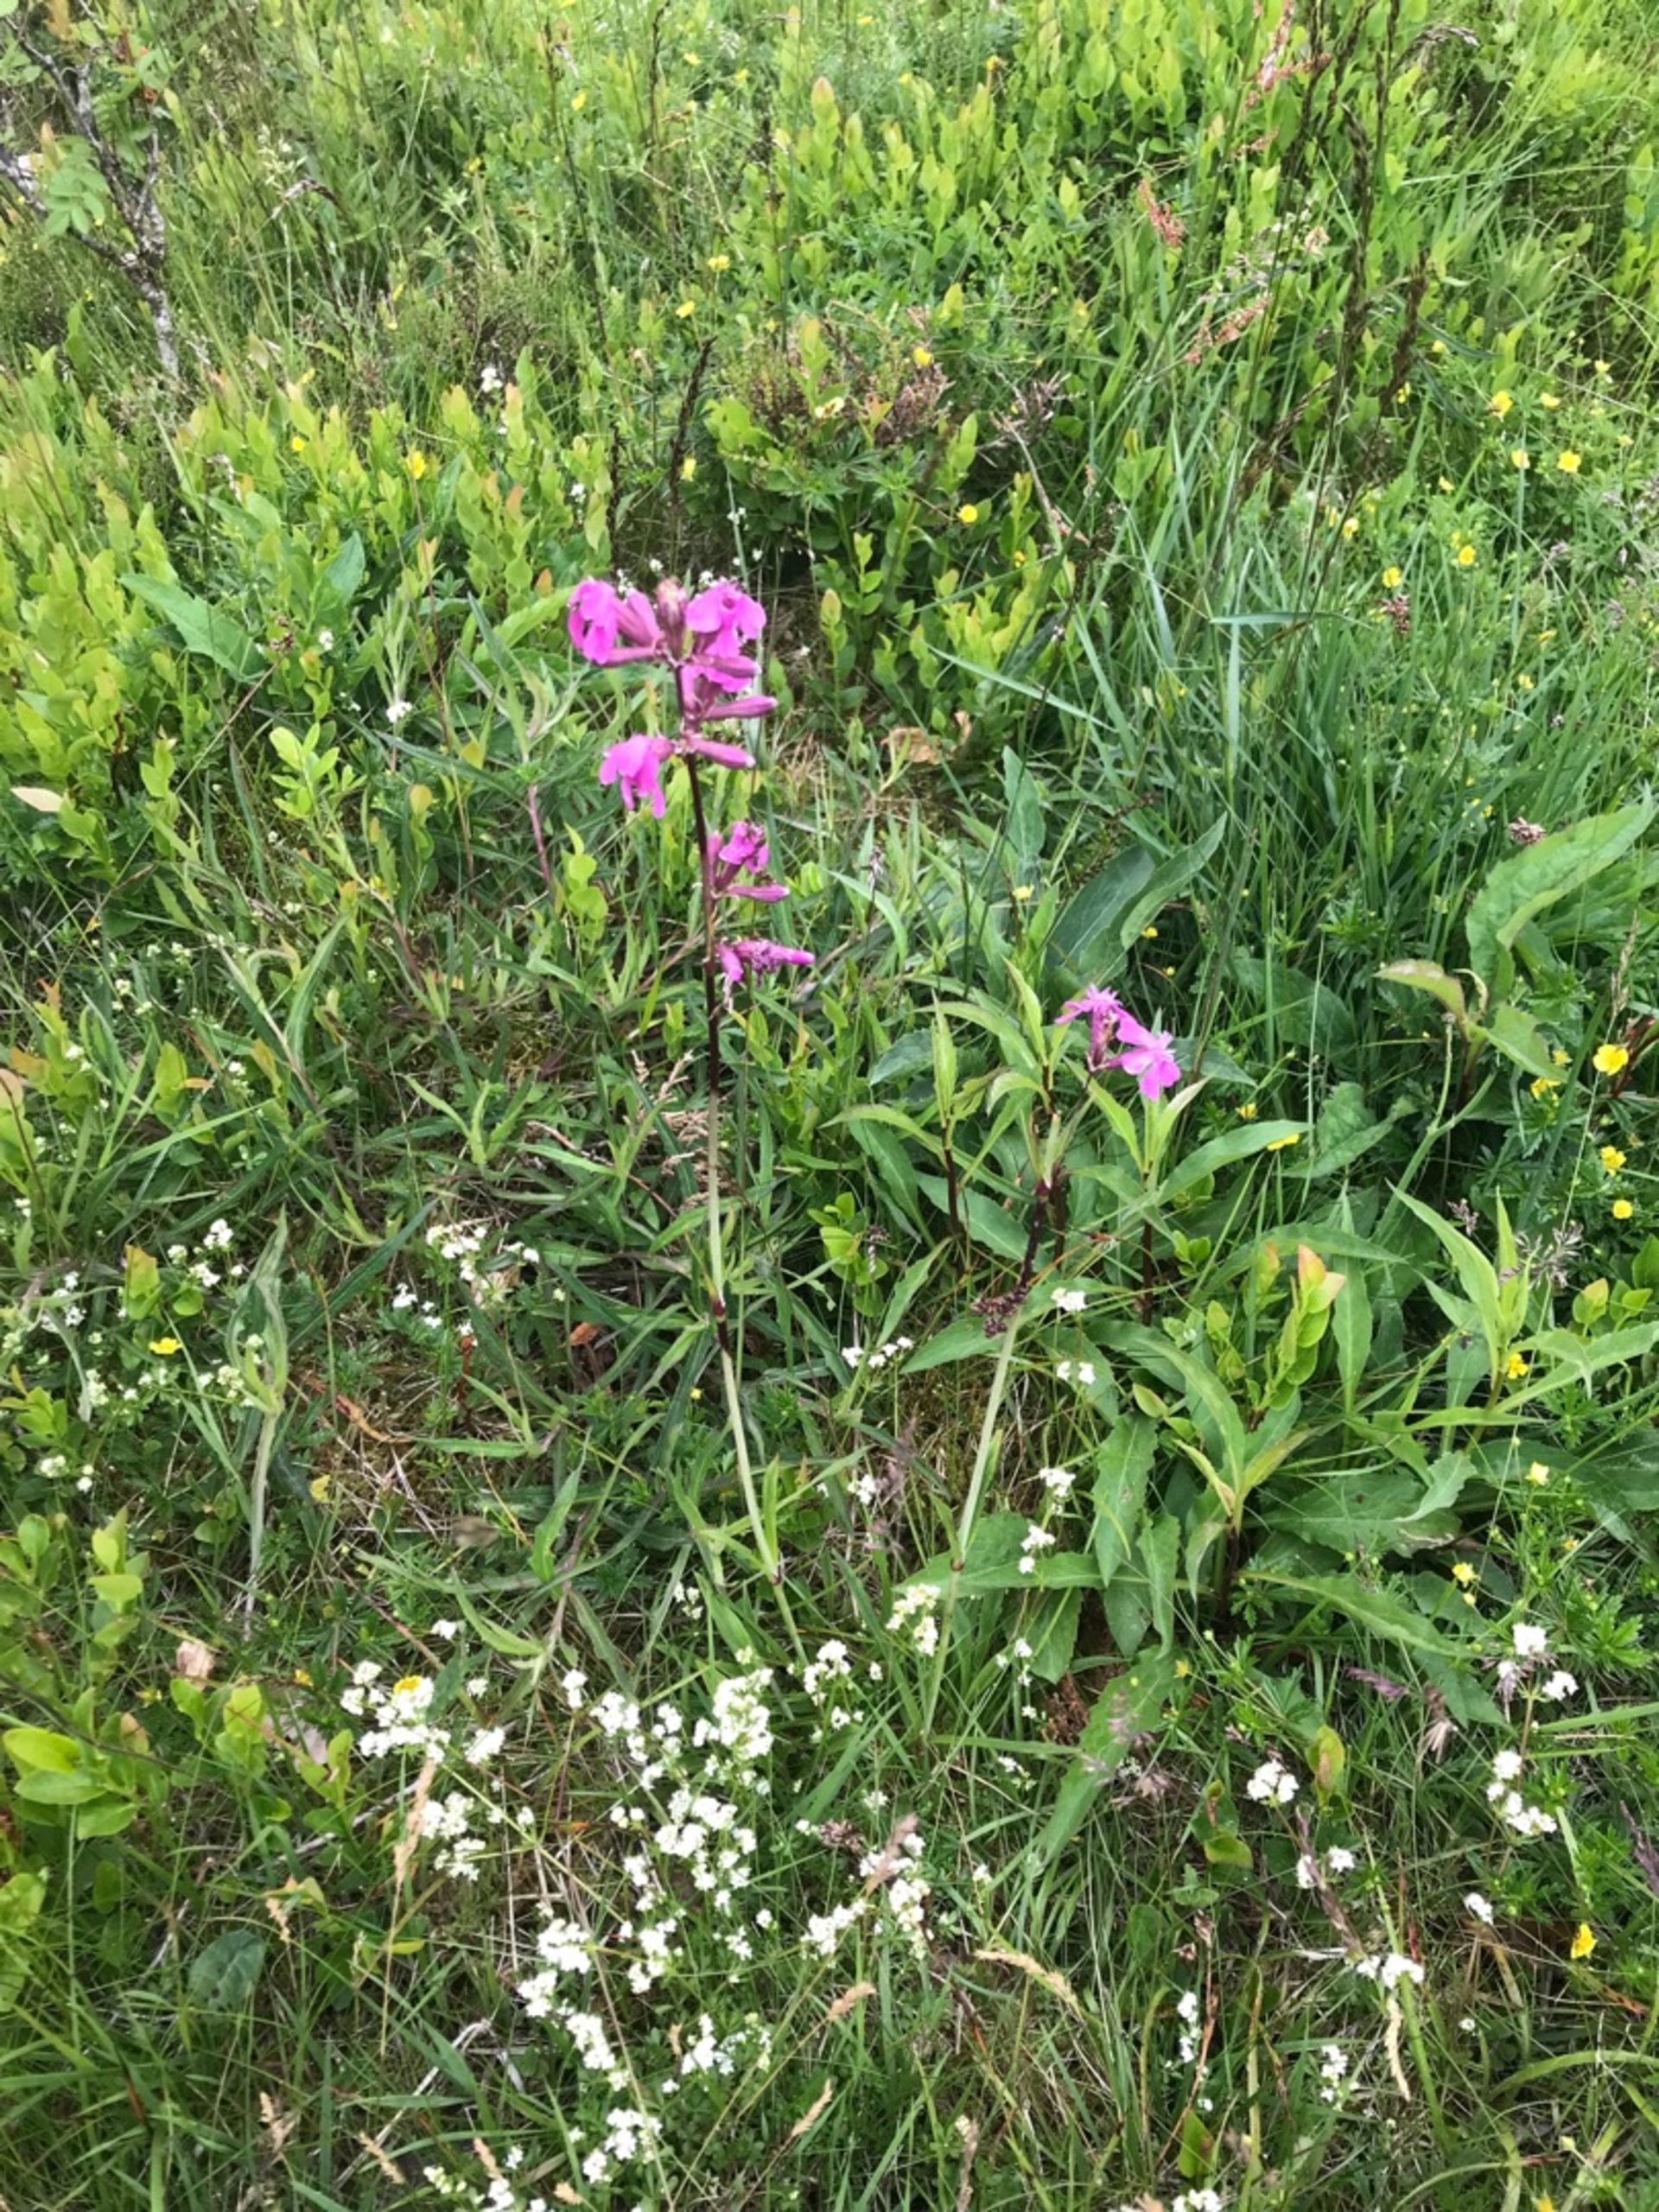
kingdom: Plantae
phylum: Tracheophyta
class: Magnoliopsida
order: Caryophyllales
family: Caryophyllaceae
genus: Viscaria
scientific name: Viscaria vulgaris
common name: Tjærenellike
